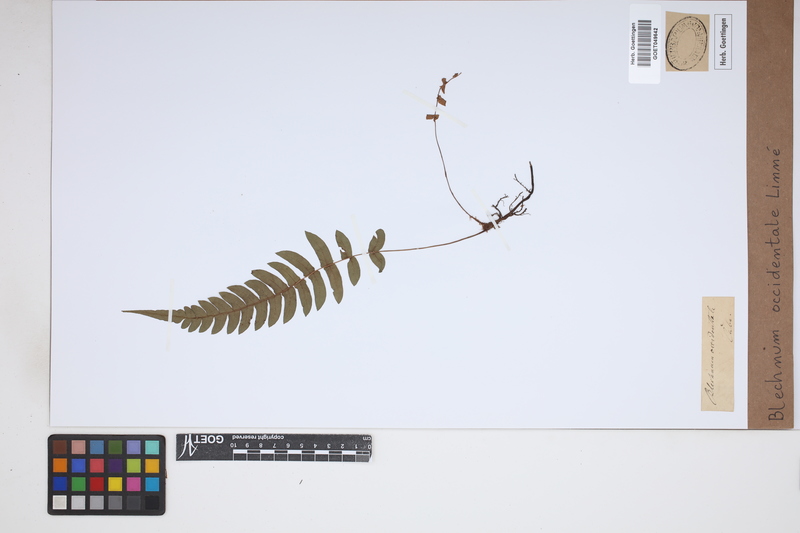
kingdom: Plantae
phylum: Tracheophyta
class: Polypodiopsida
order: Polypodiales
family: Blechnaceae
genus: Blechnum
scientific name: Blechnum occidentale
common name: Hammock fern
